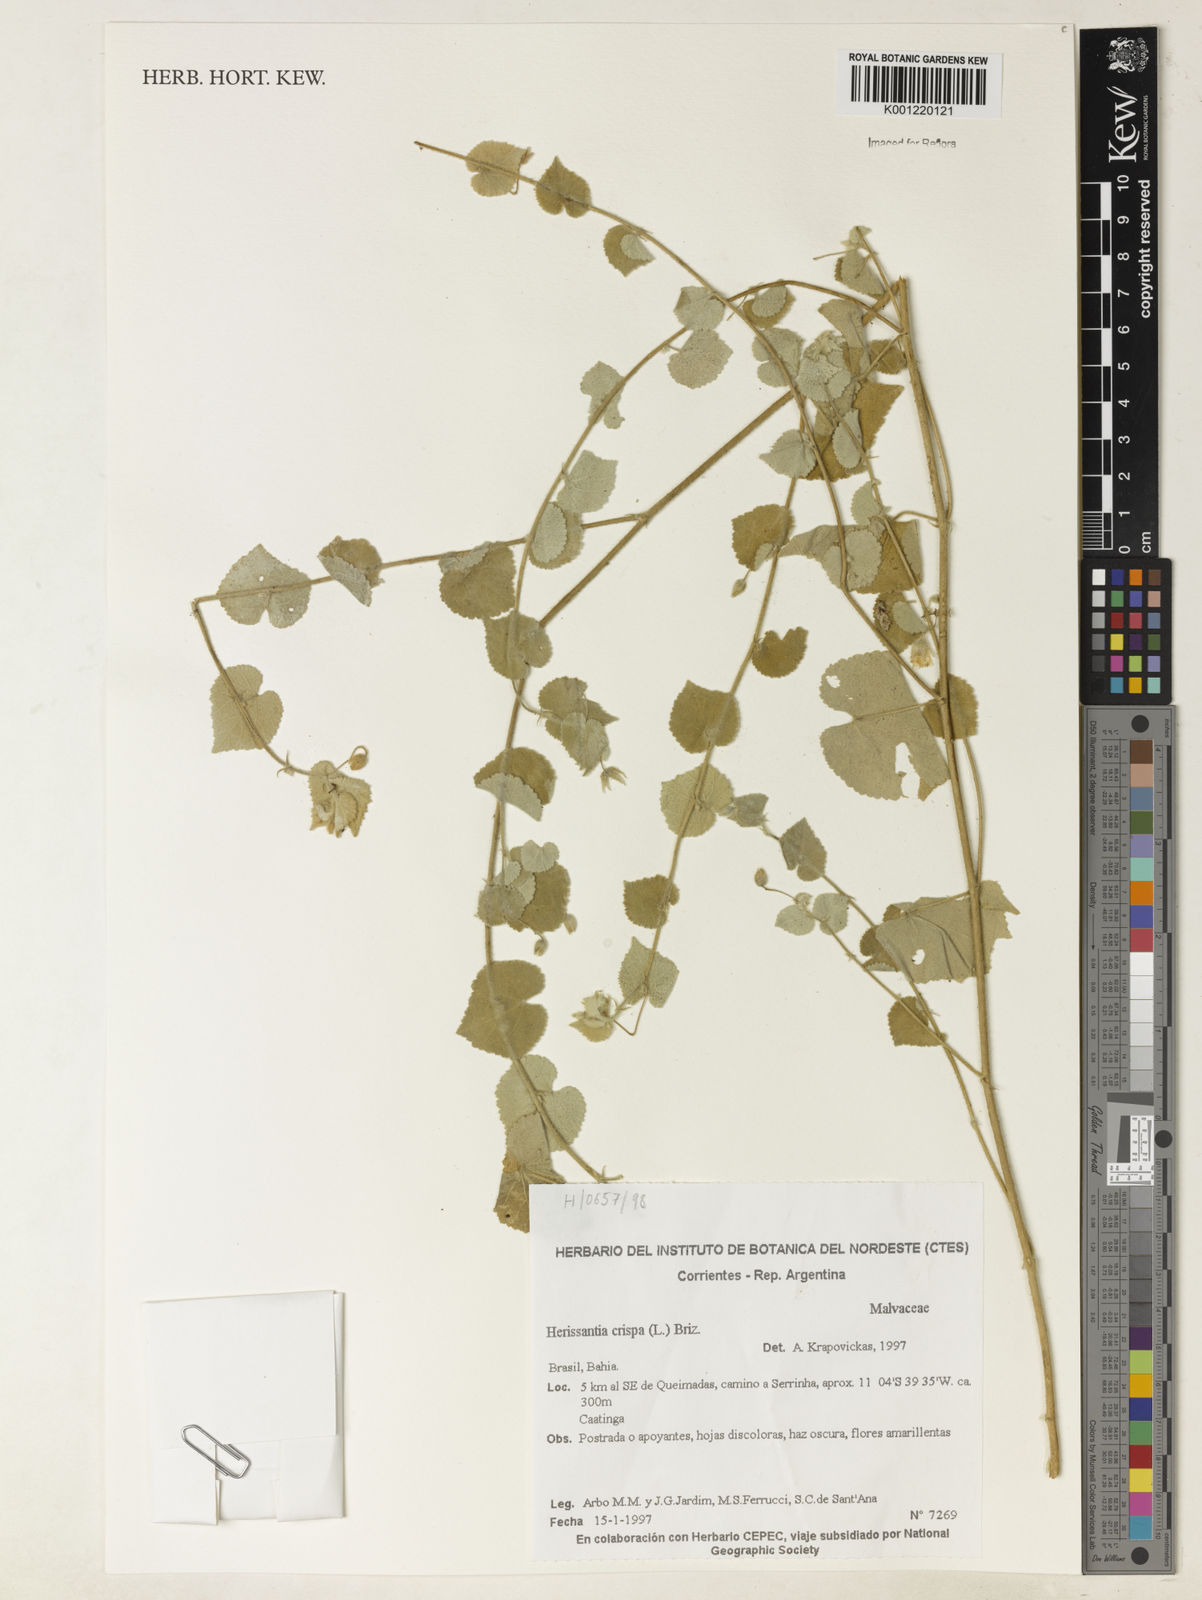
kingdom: Plantae
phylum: Tracheophyta
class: Magnoliopsida
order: Malvales
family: Malvaceae
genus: Herissantia
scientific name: Herissantia crispa
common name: Bladdermallow
